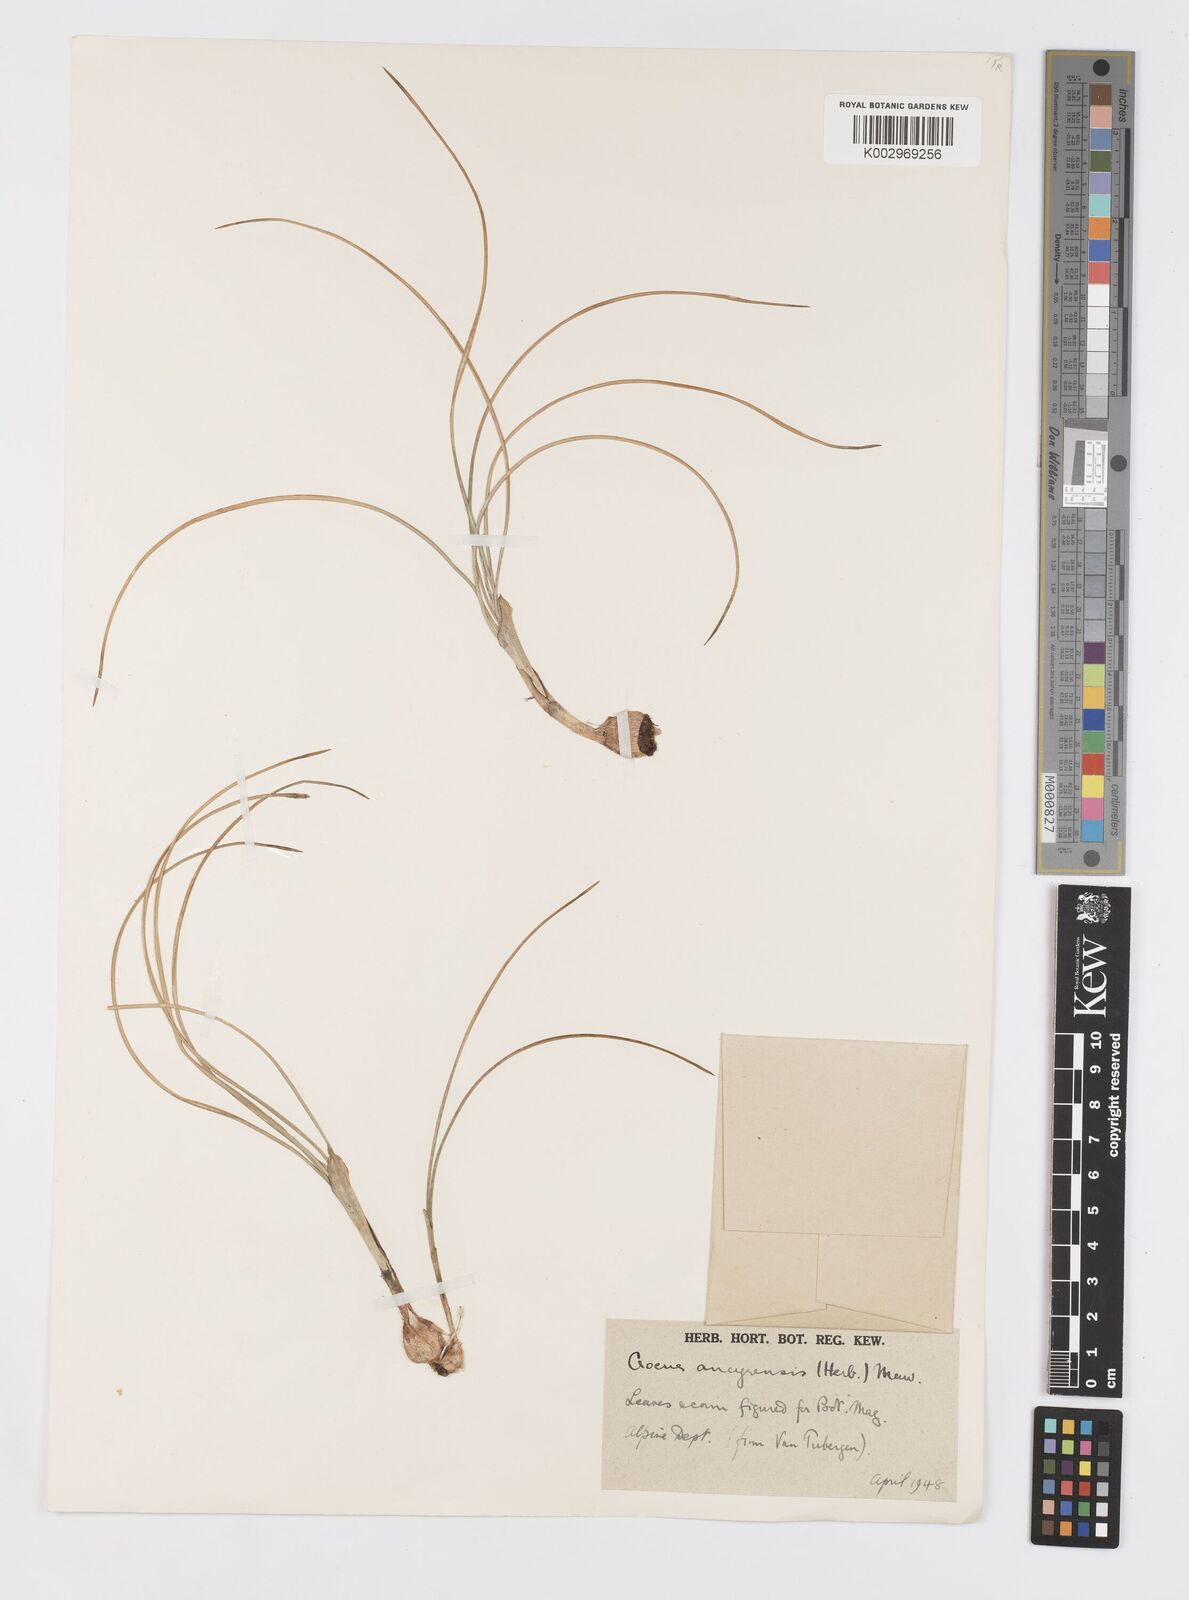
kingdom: Plantae
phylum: Tracheophyta
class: Liliopsida
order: Asparagales
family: Iridaceae
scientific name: Iridaceae
